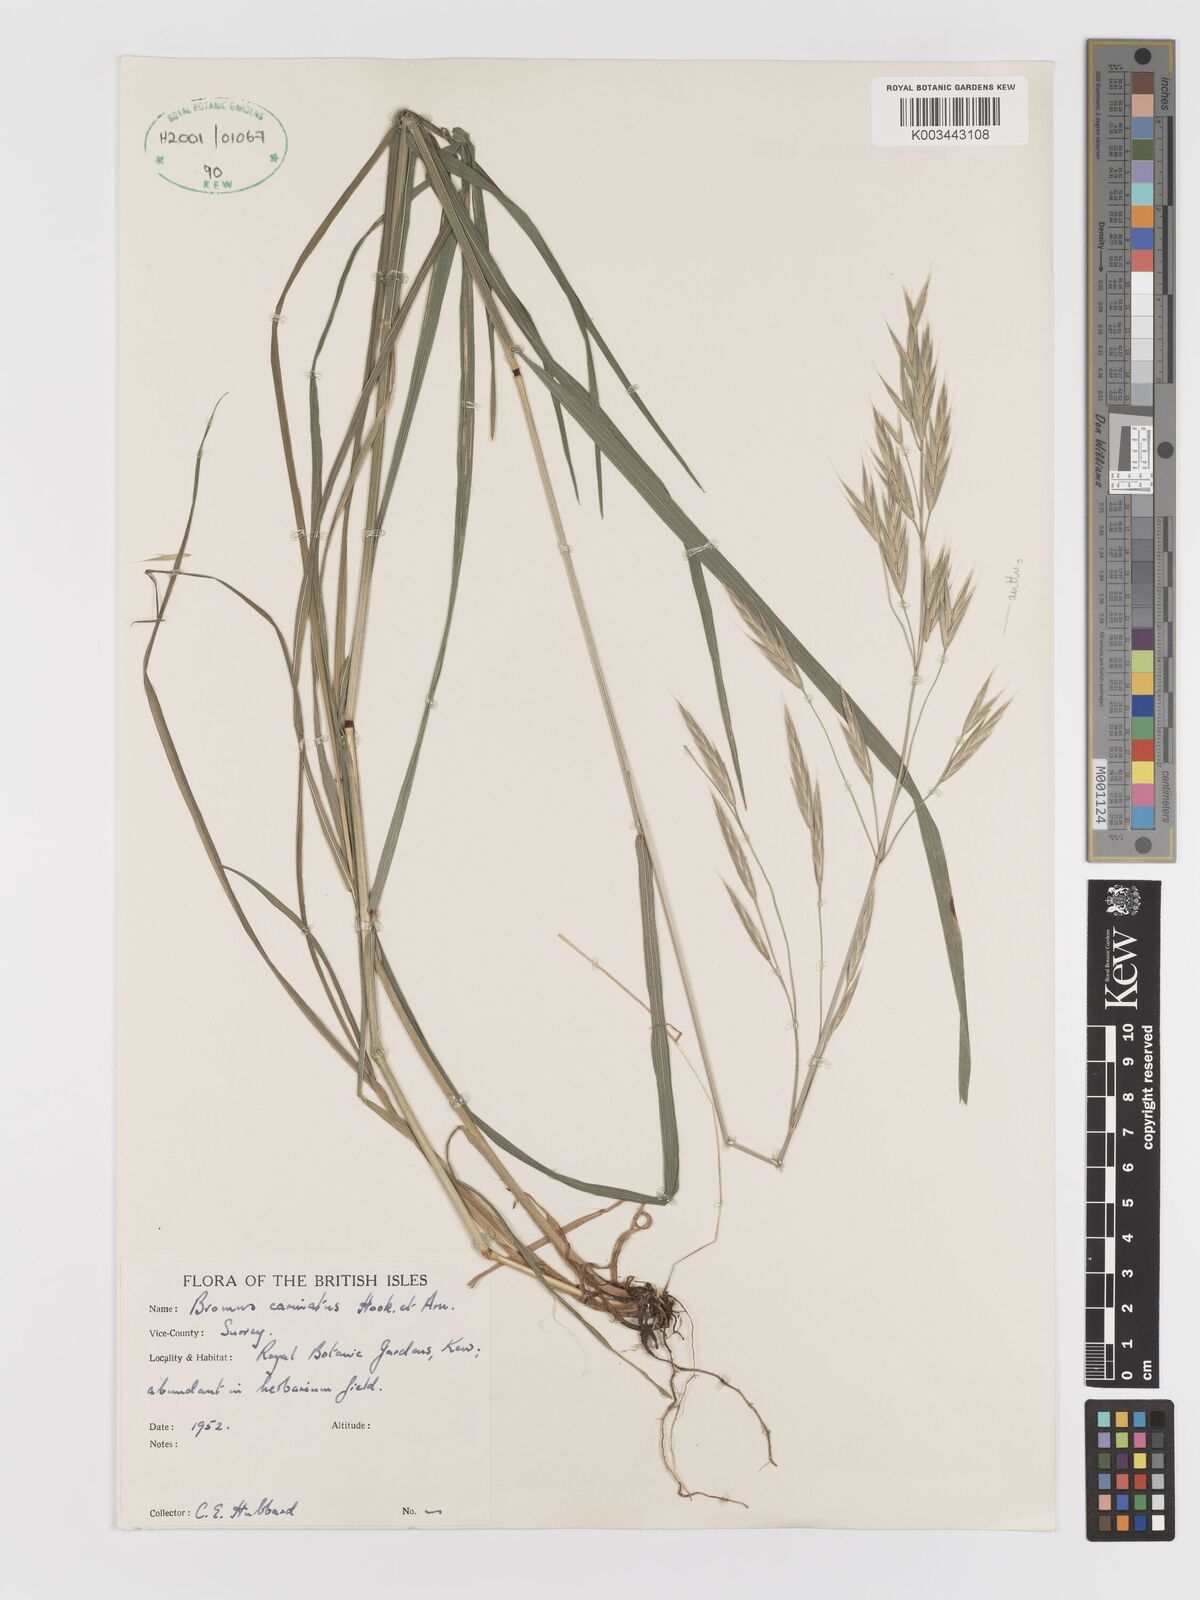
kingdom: Plantae
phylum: Tracheophyta
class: Liliopsida
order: Poales
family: Poaceae
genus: Bromus
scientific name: Bromus carinatus
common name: Mountain brome
